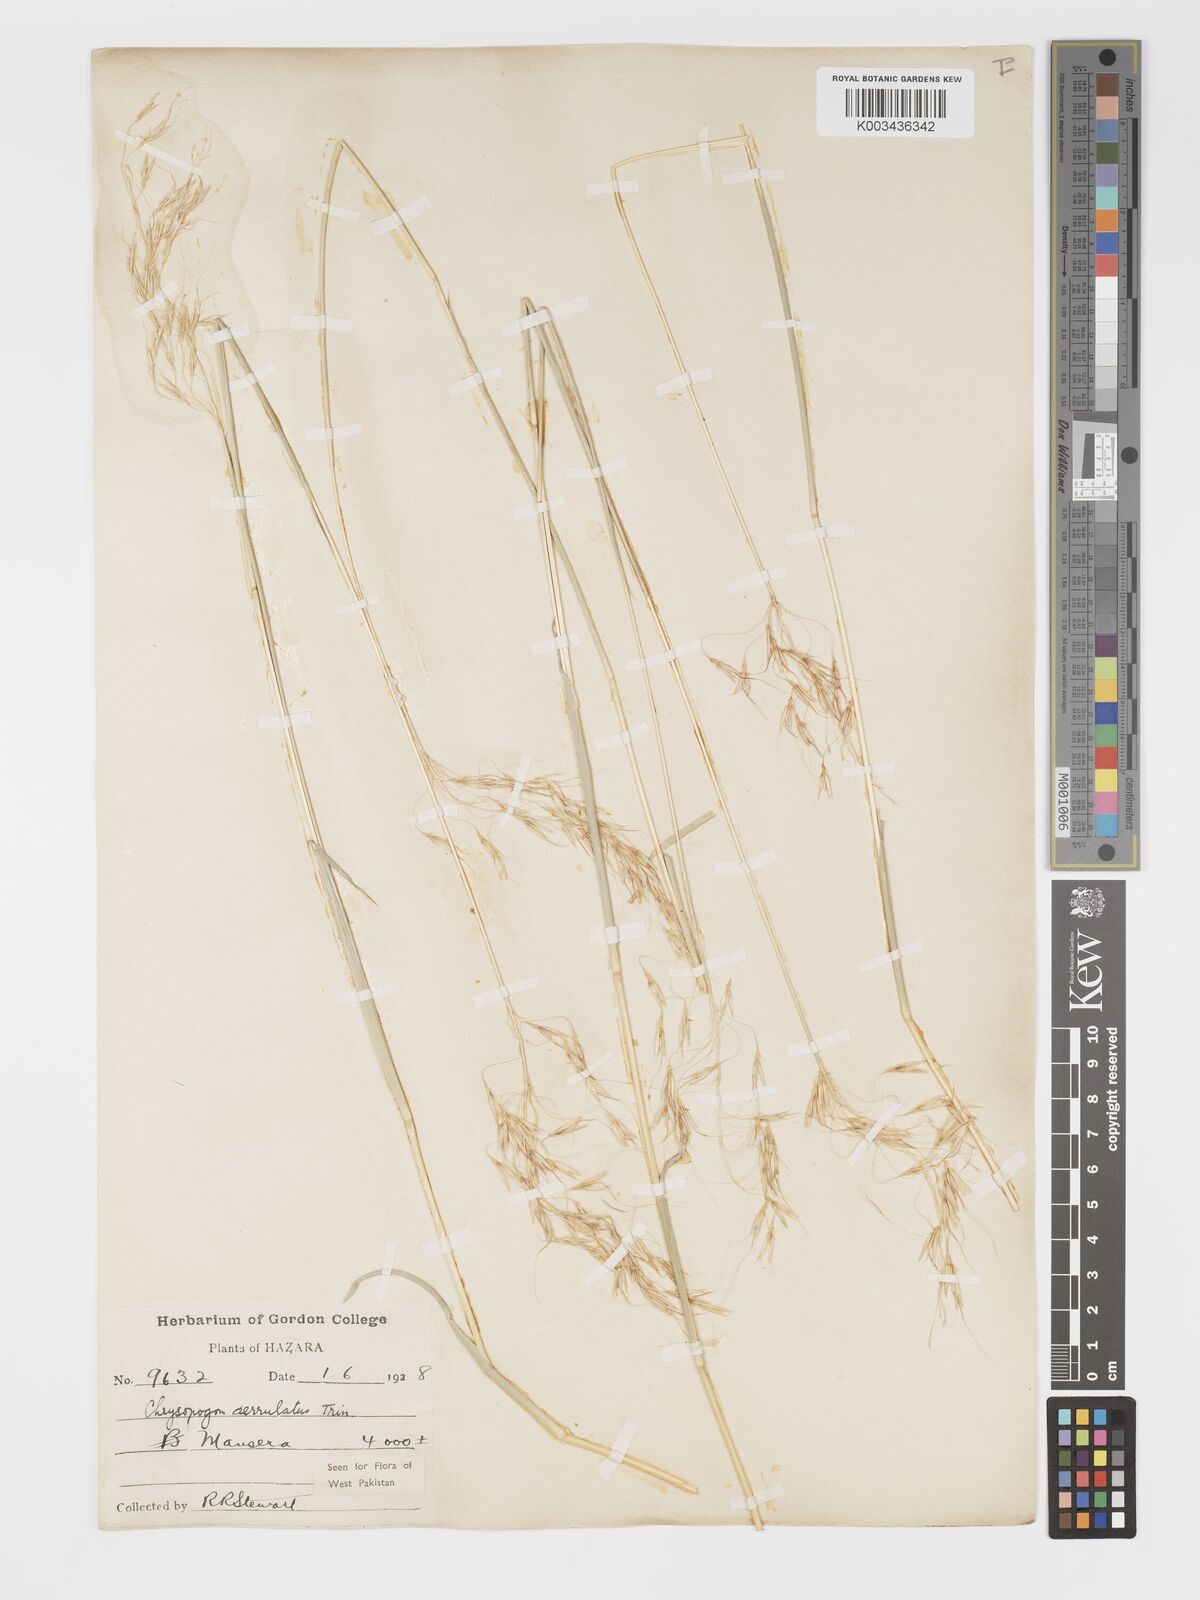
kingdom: Plantae
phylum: Tracheophyta
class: Liliopsida
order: Poales
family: Poaceae
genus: Chrysopogon
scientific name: Chrysopogon serrulatus
